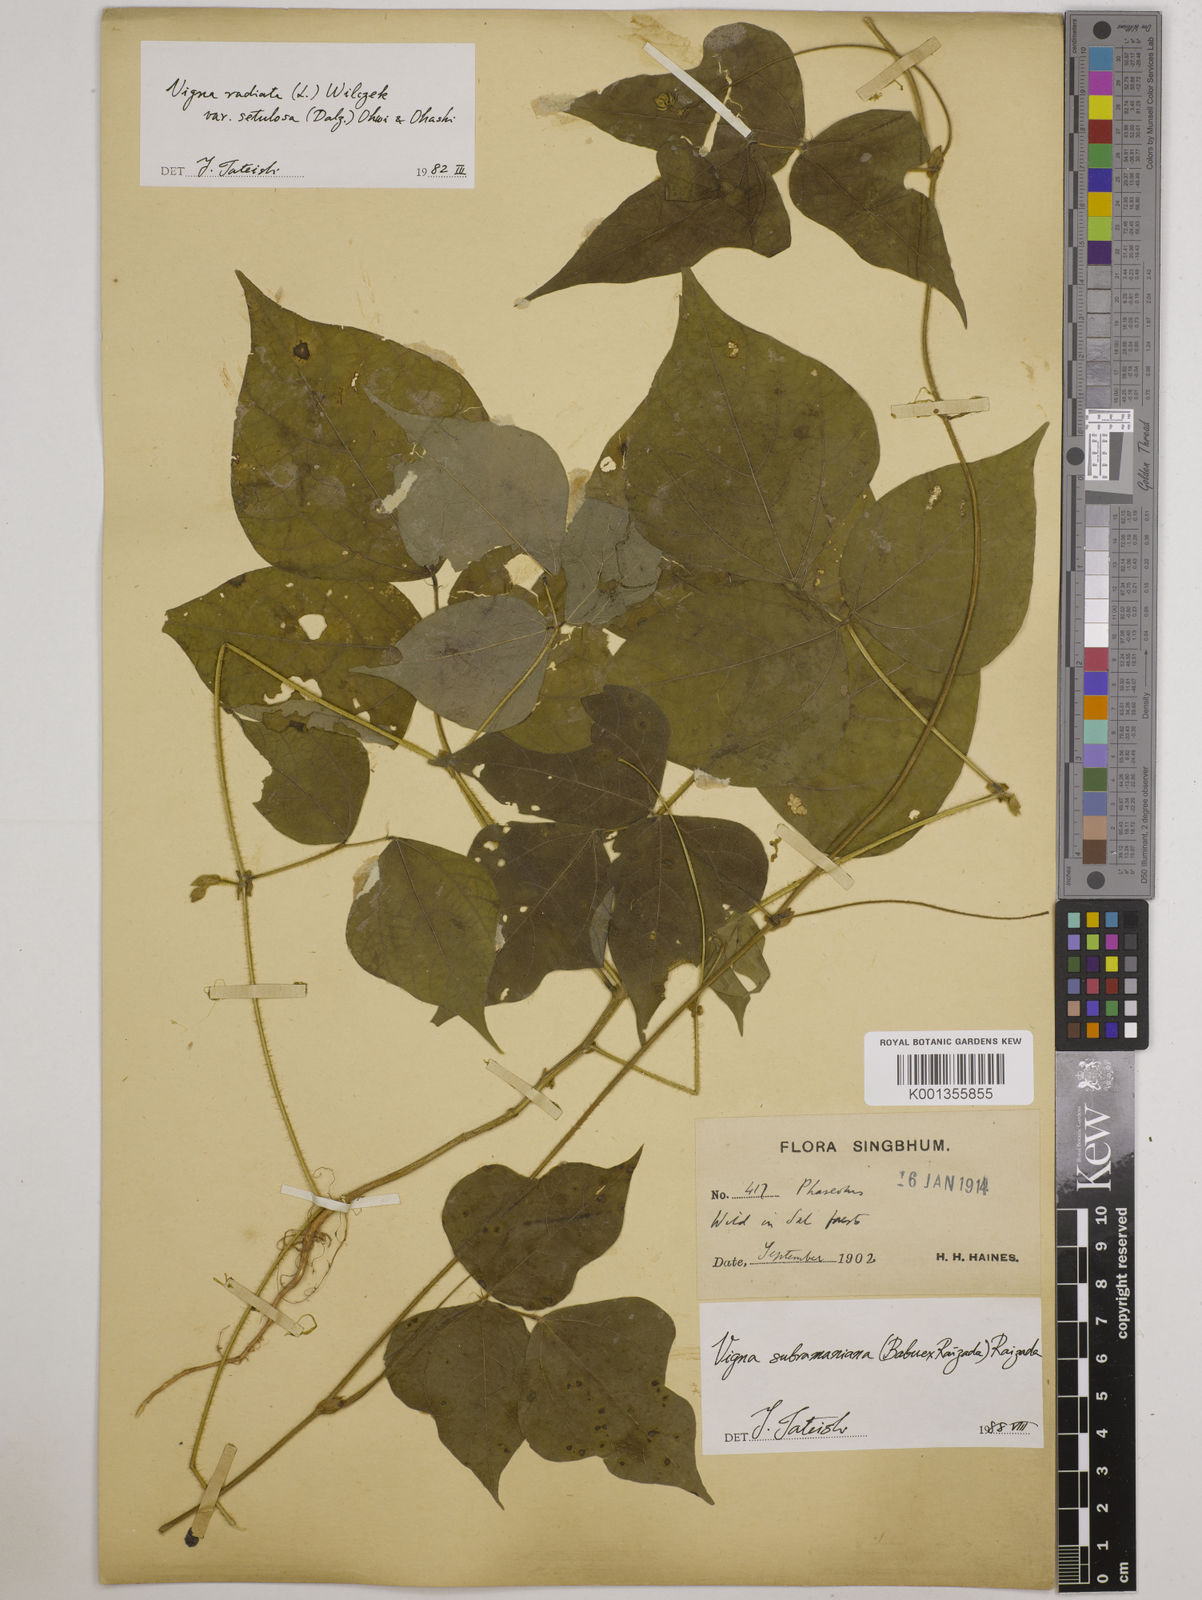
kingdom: Plantae
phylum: Tracheophyta
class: Magnoliopsida
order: Fabales
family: Fabaceae
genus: Vigna
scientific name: Vigna radiata
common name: Mung-bean
